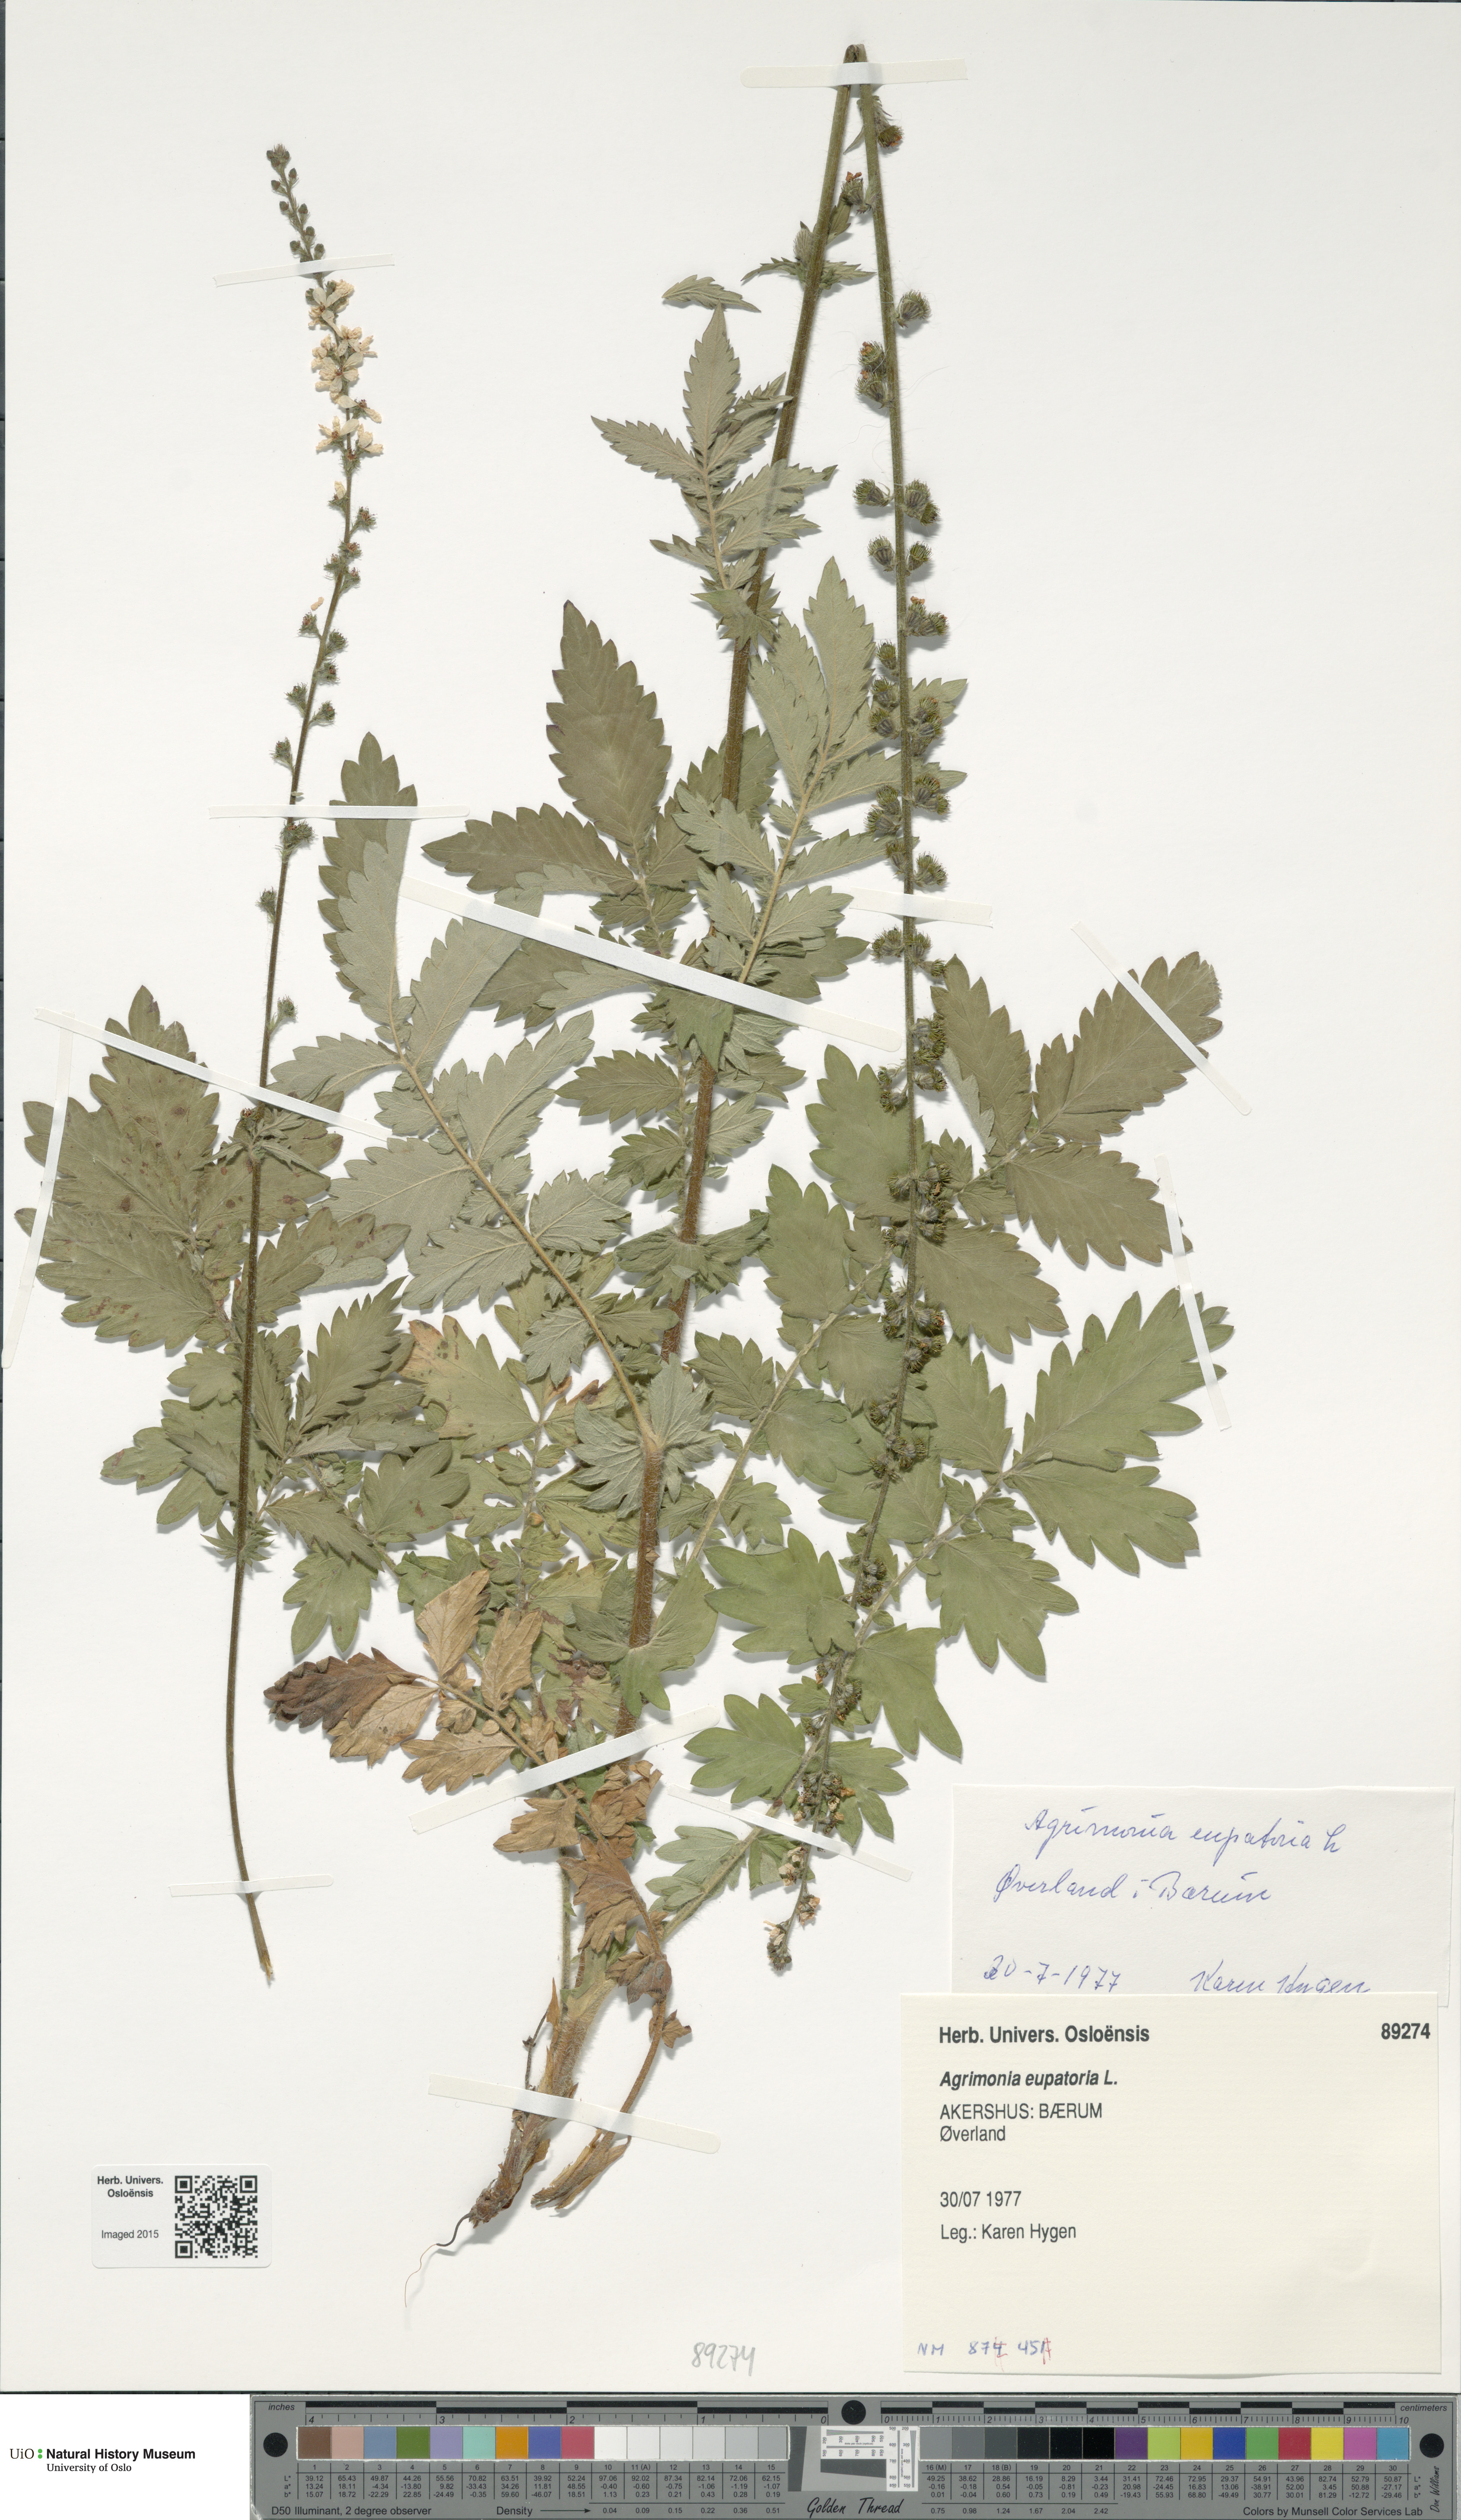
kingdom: Plantae
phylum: Tracheophyta
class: Magnoliopsida
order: Rosales
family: Rosaceae
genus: Agrimonia
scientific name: Agrimonia eupatoria
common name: Agrimony
